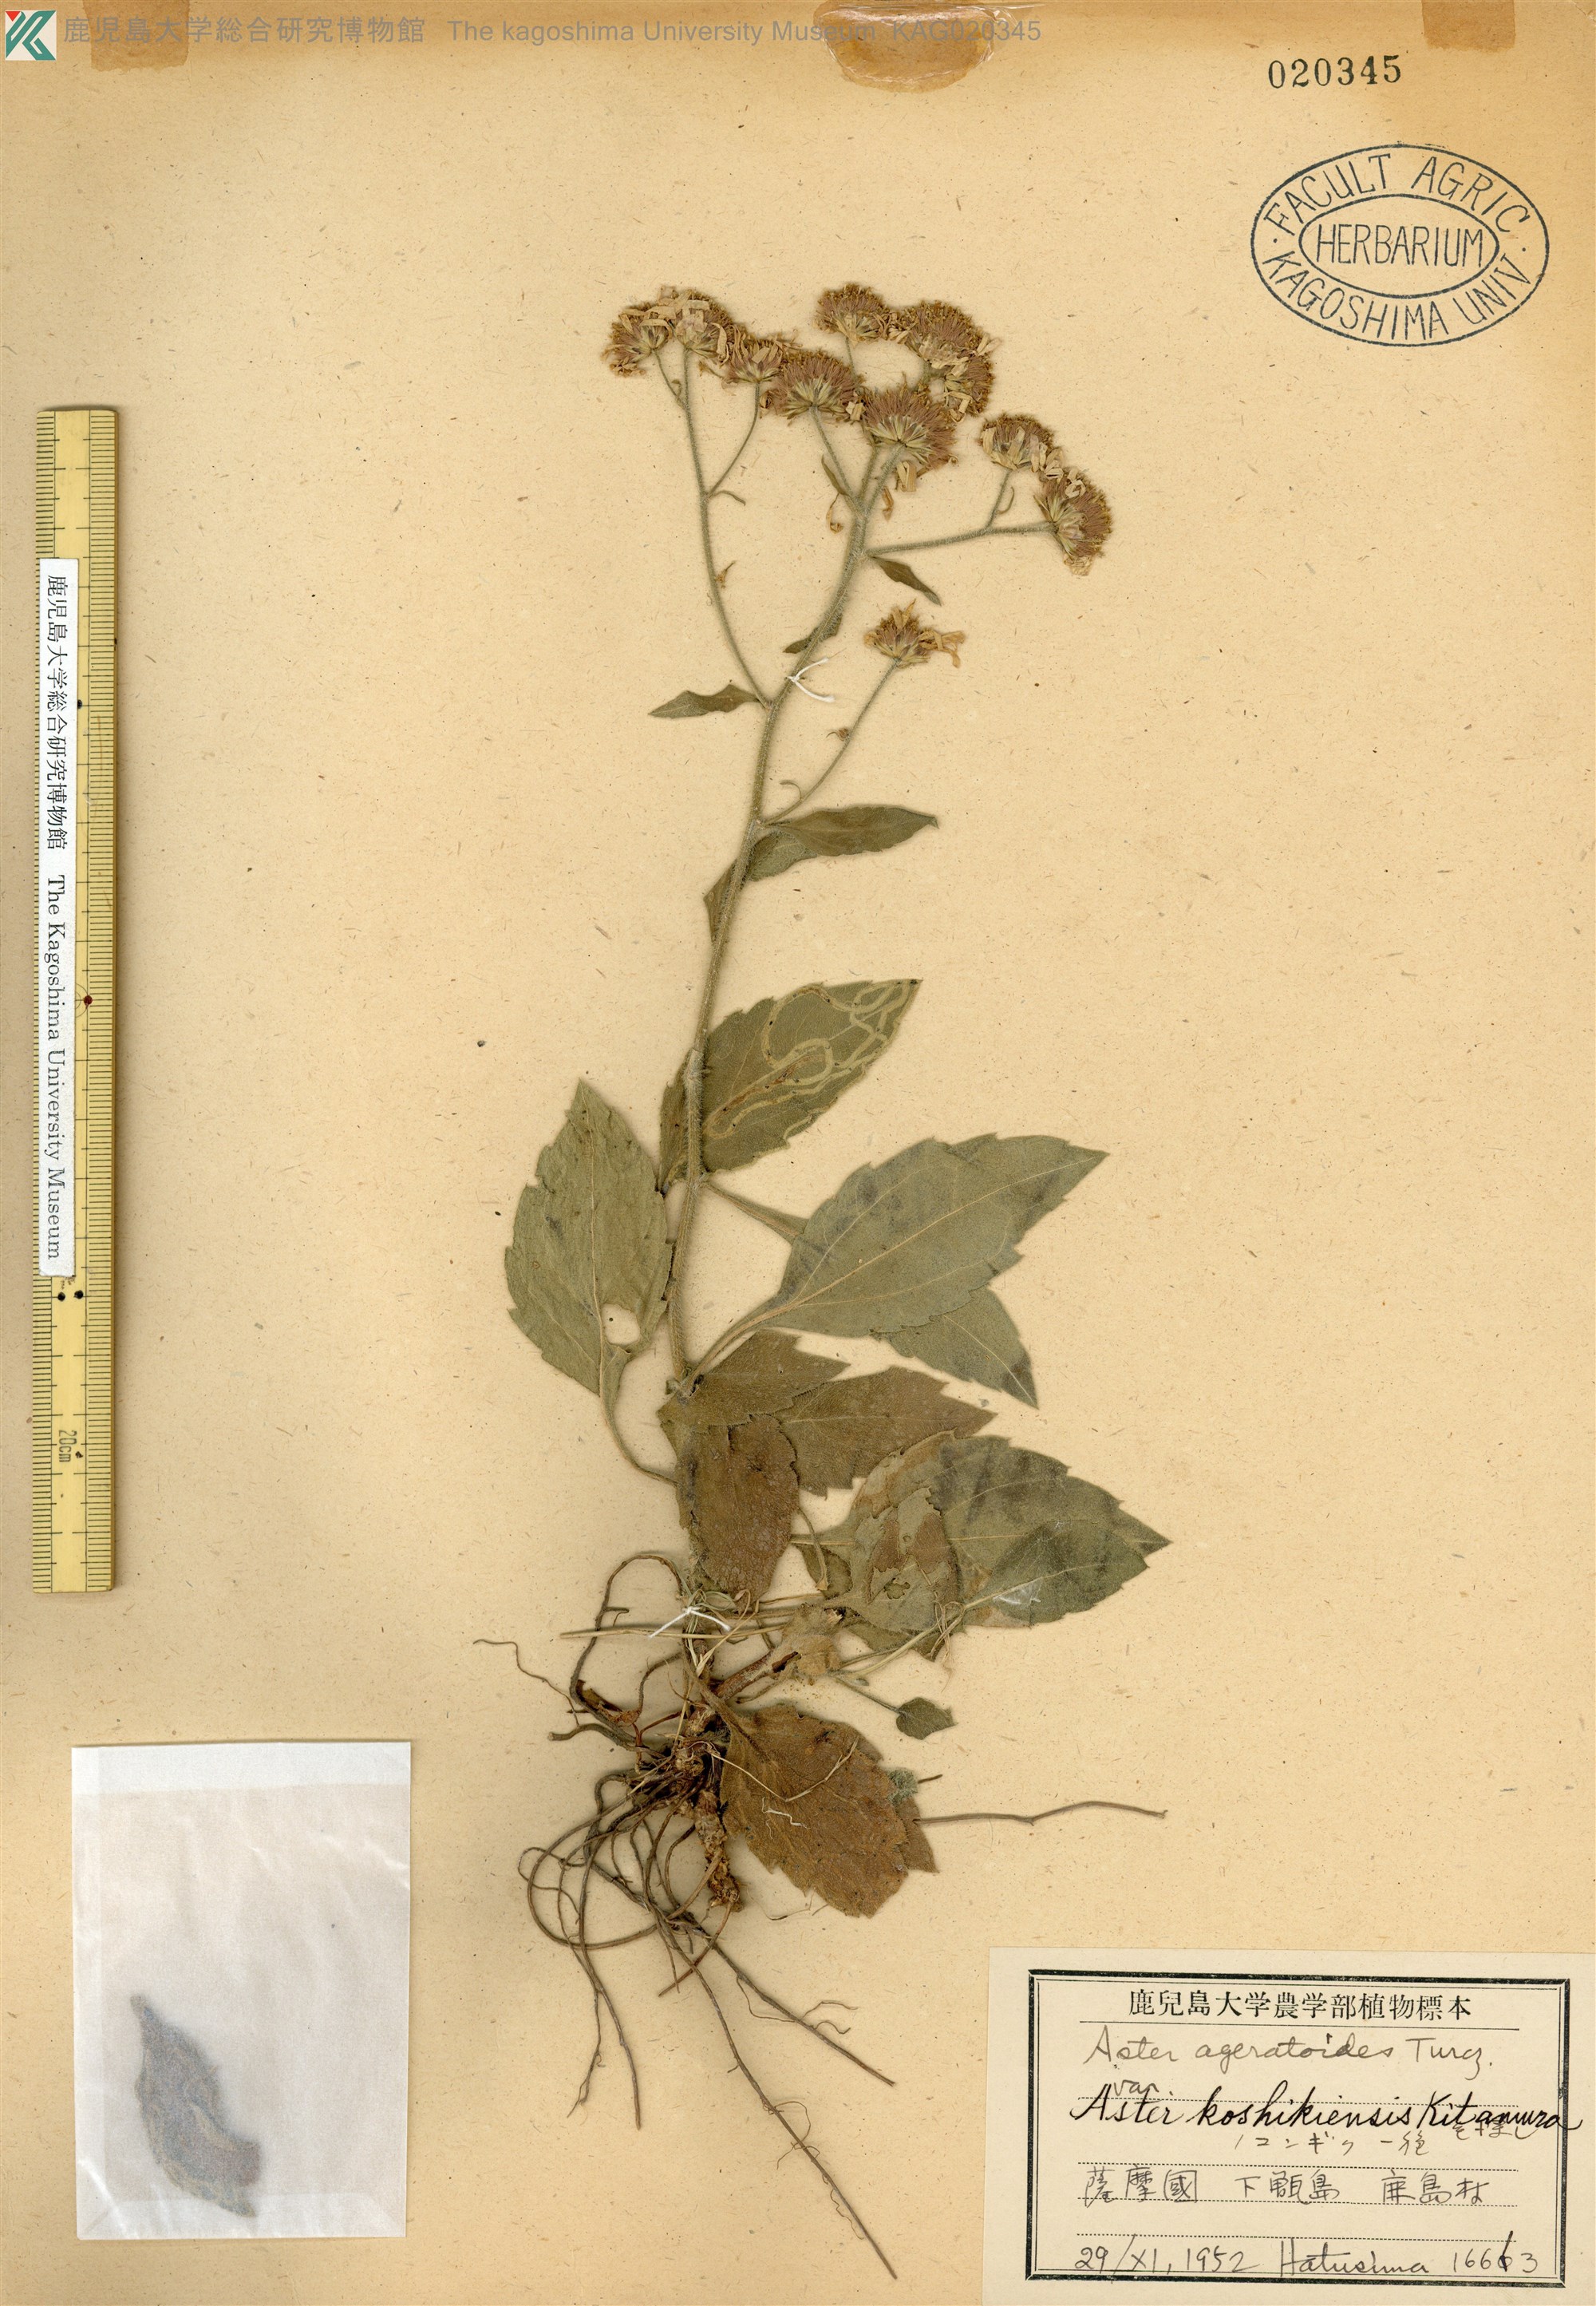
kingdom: Plantae
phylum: Tracheophyta
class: Magnoliopsida
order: Asterales
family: Asteraceae
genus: Aster
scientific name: Aster koshikiensis
